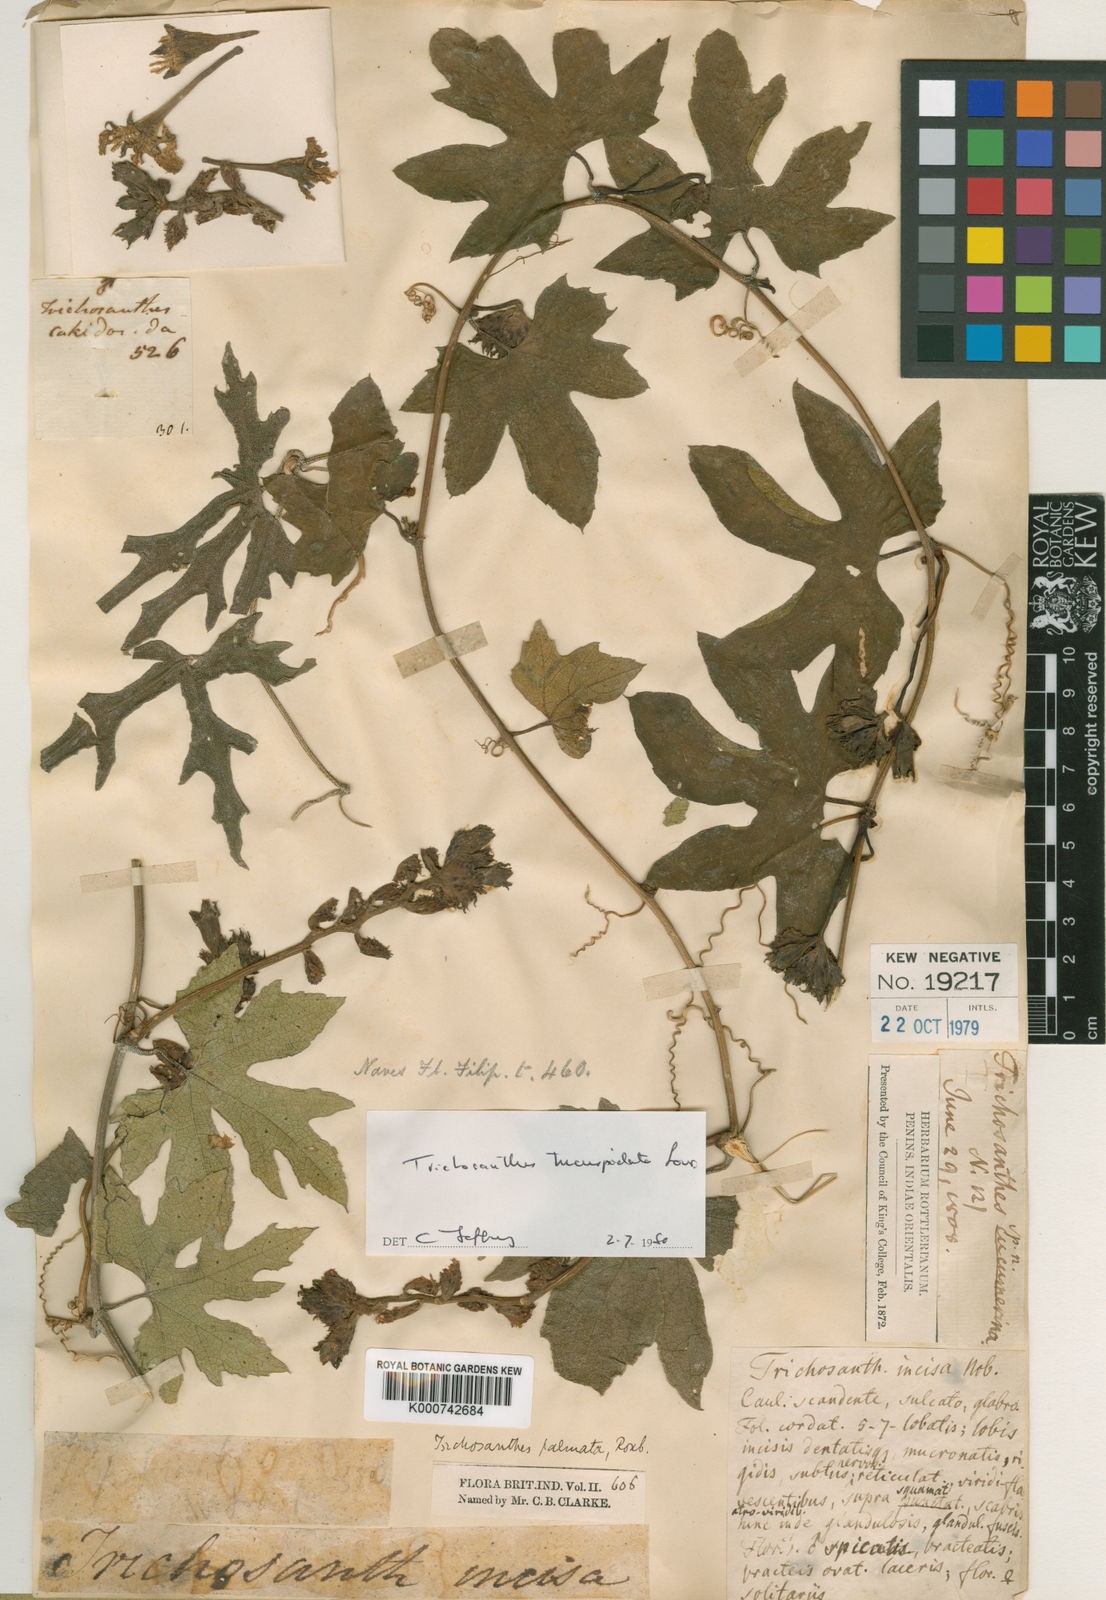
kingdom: Plantae
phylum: Tracheophyta
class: Magnoliopsida
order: Cucurbitales
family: Cucurbitaceae
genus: Trichosanthes
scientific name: Trichosanthes tricuspidata
